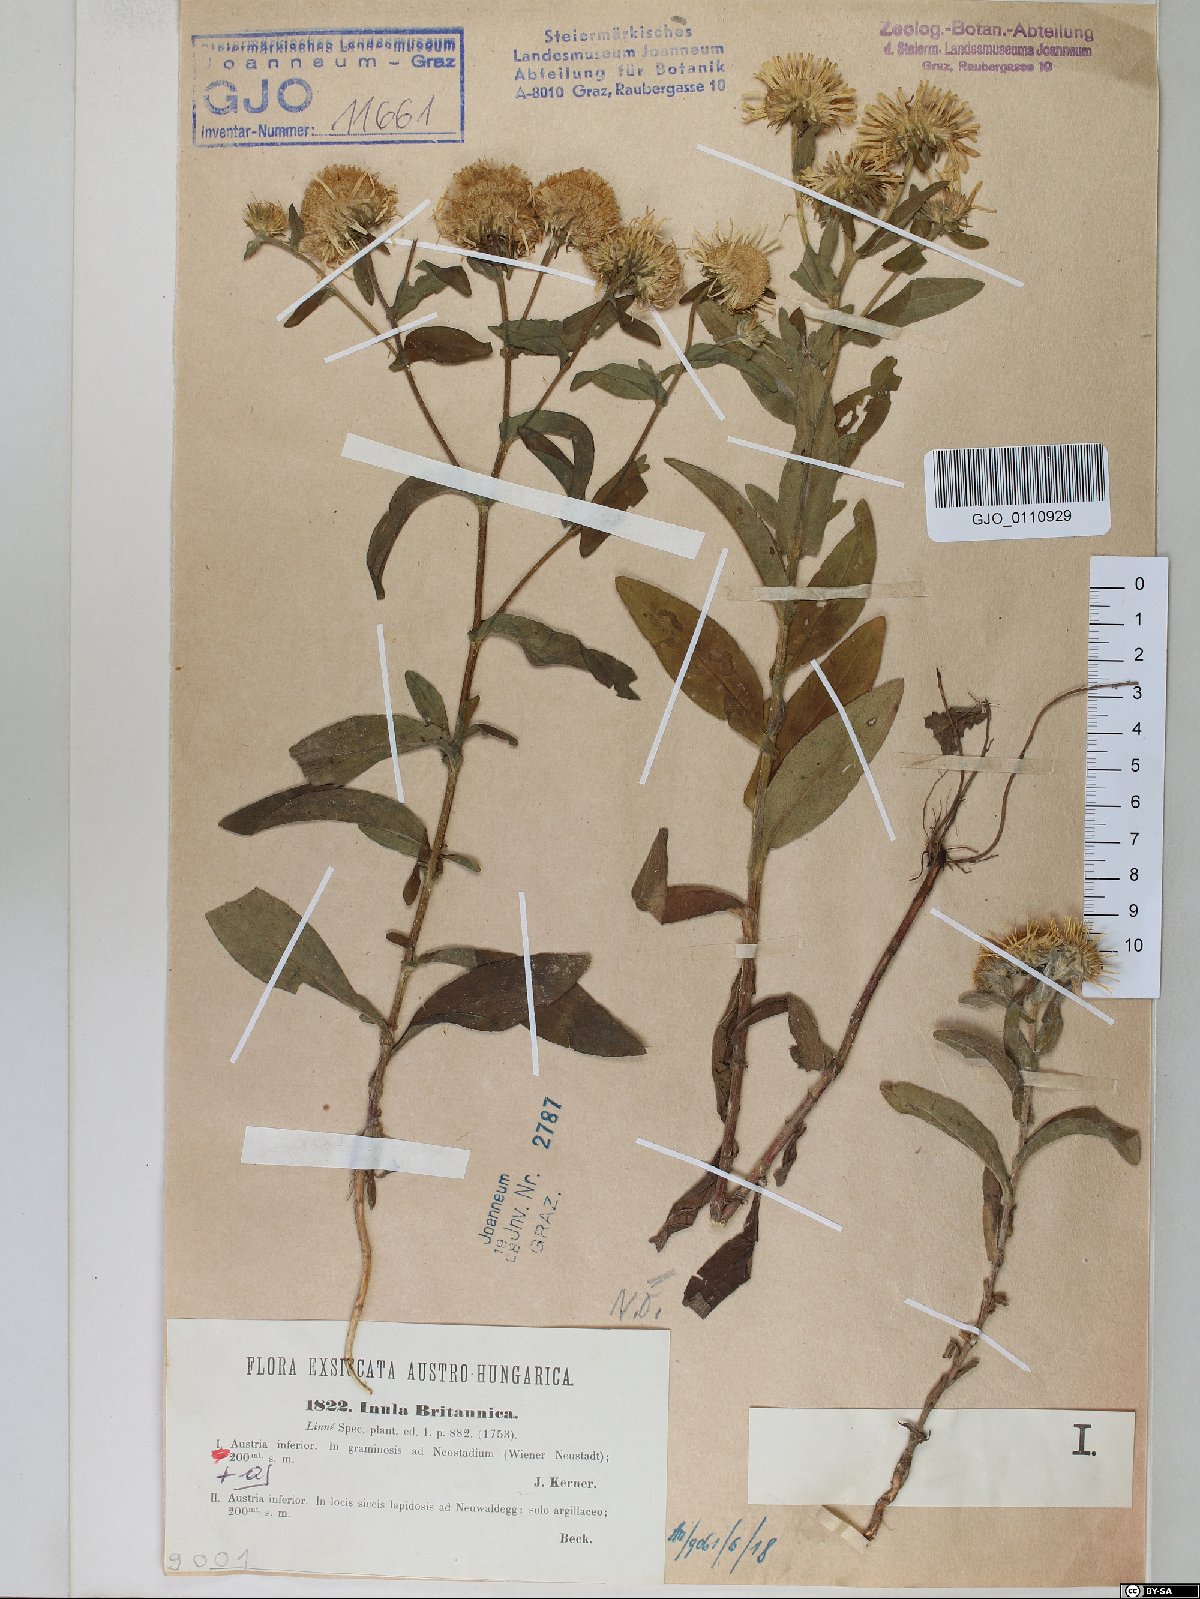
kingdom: Plantae
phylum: Tracheophyta
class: Magnoliopsida
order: Asterales
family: Asteraceae
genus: Pentanema
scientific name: Pentanema britannicum
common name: British elecampane
